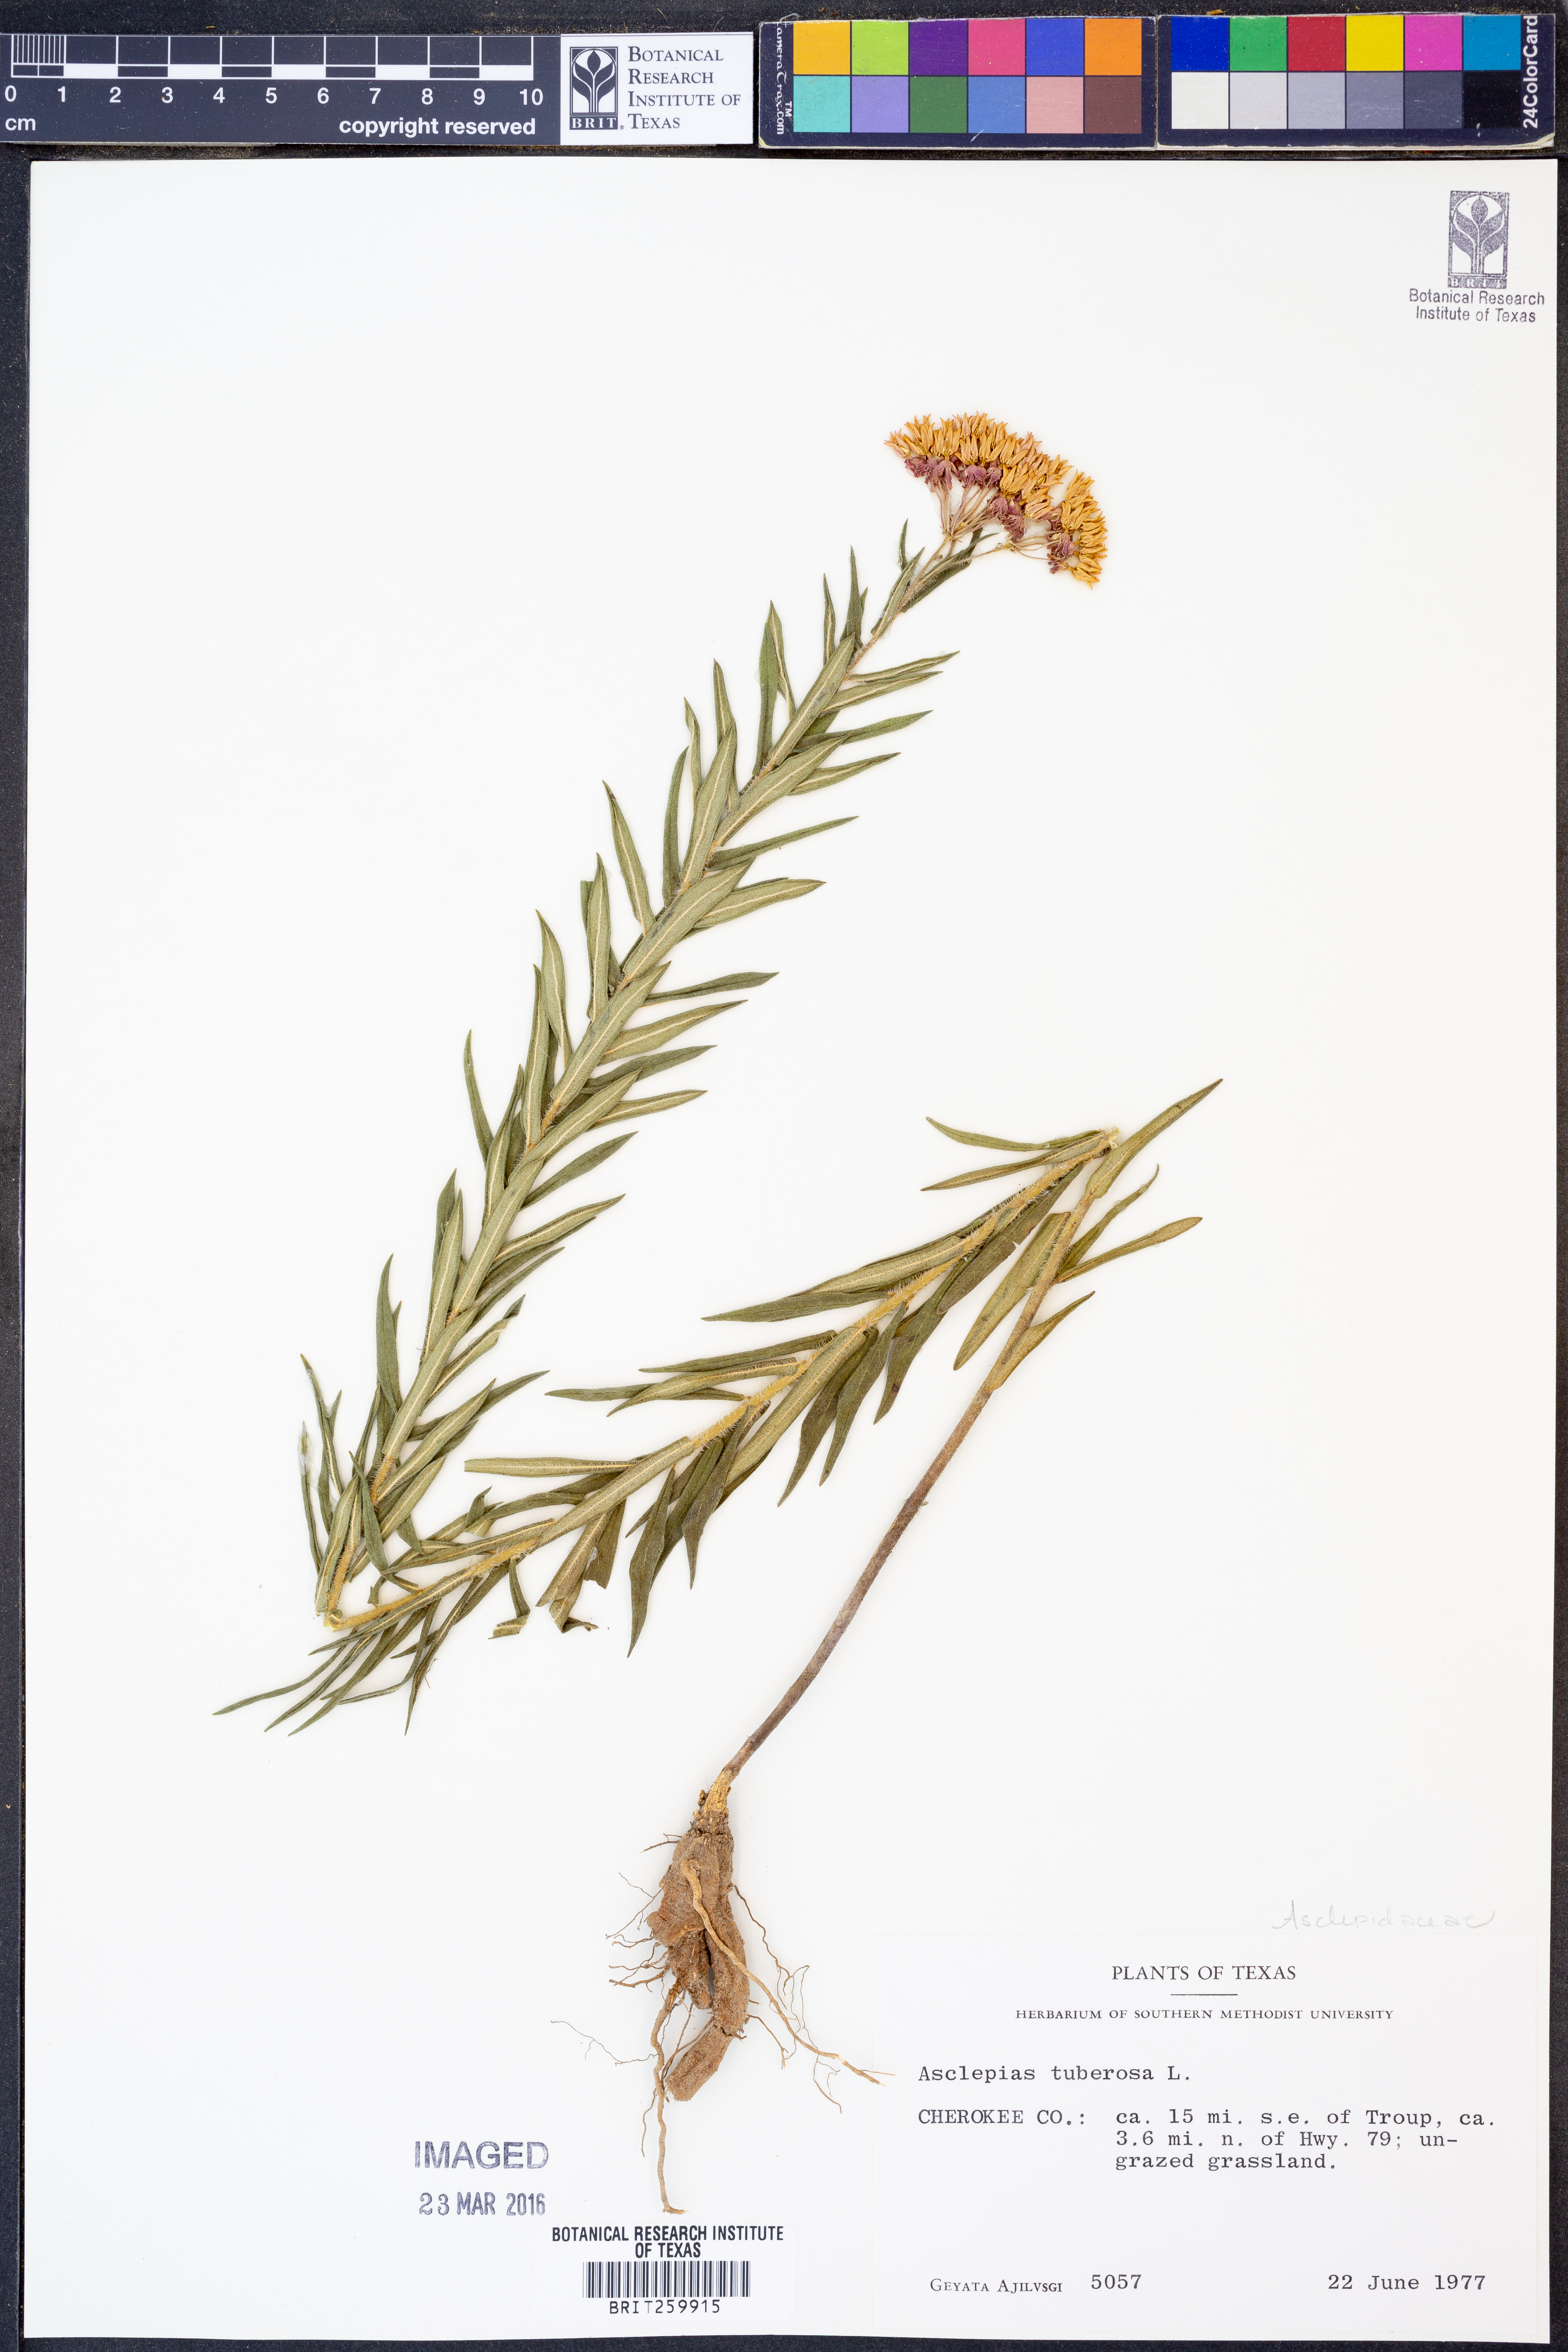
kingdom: Plantae
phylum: Tracheophyta
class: Magnoliopsida
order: Gentianales
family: Apocynaceae
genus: Asclepias
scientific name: Asclepias tuberosa
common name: Butterfly milkweed
